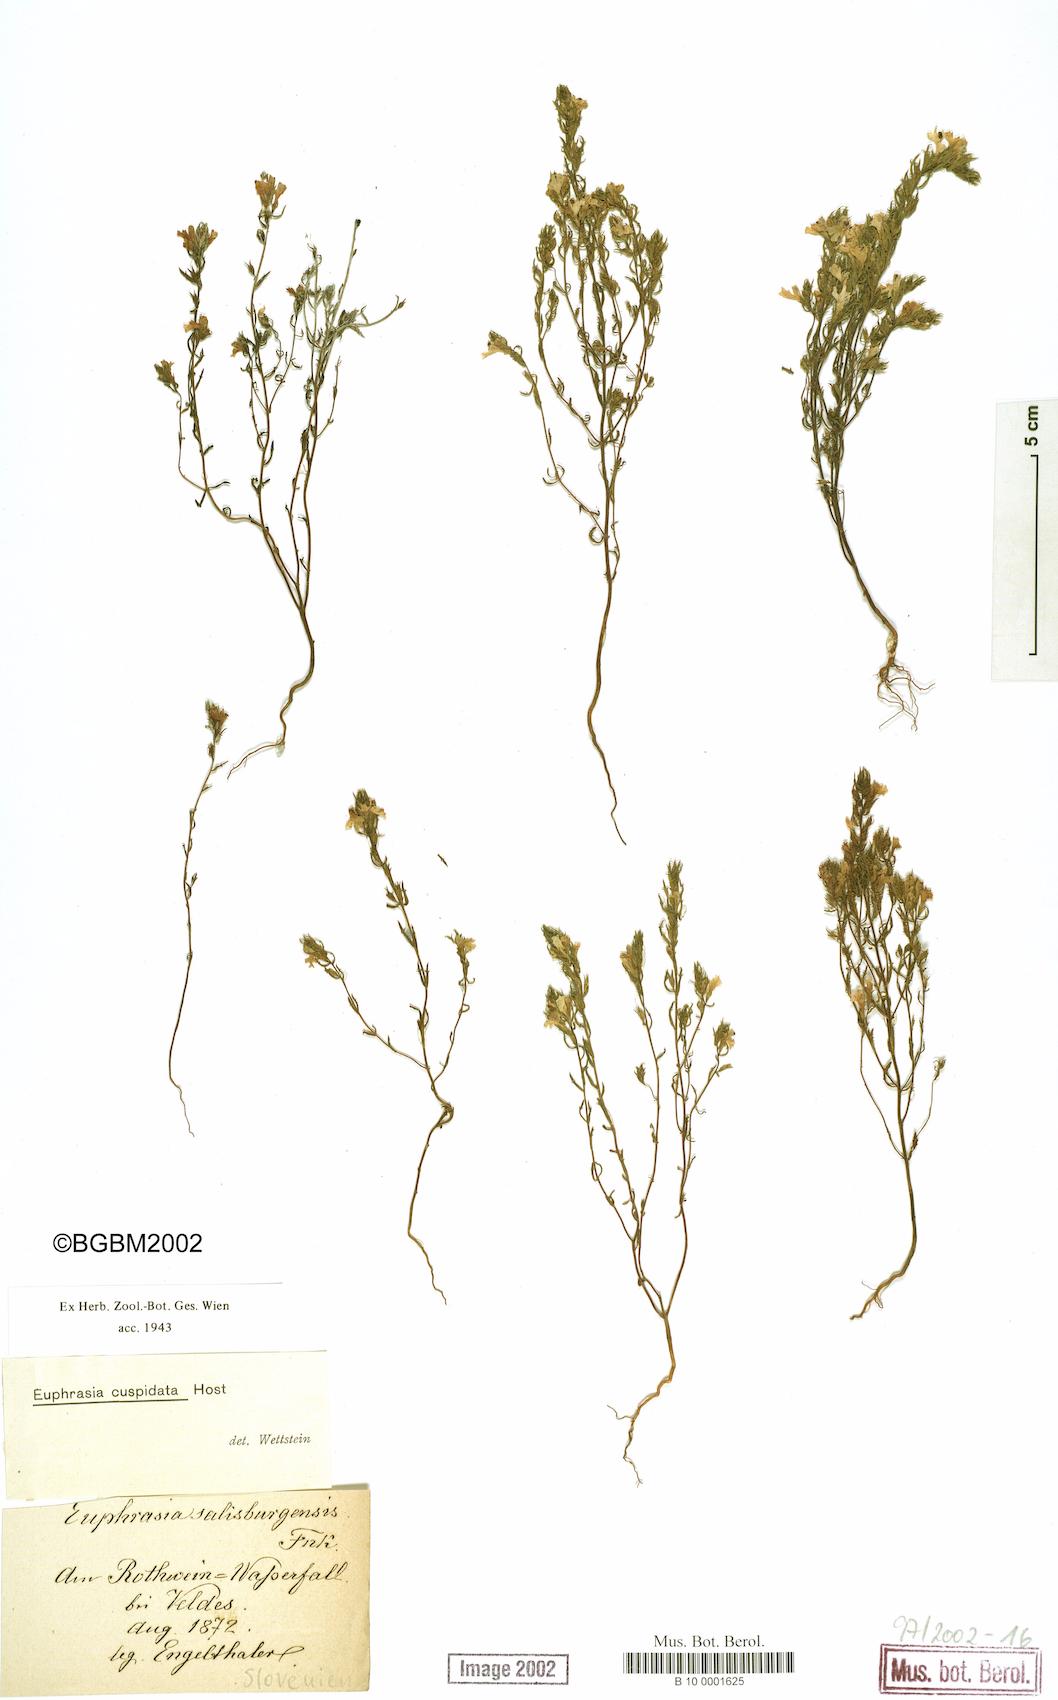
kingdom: Plantae
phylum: Tracheophyta
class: Magnoliopsida
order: Lamiales
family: Orobanchaceae
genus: Euphrasia
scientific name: Euphrasia cuspidata
